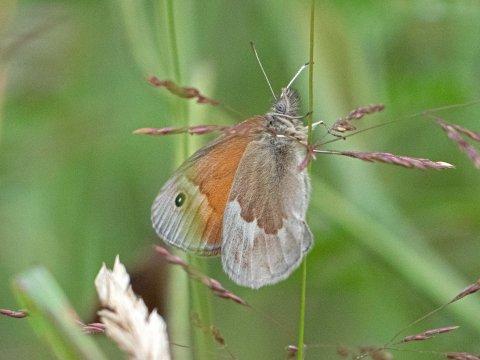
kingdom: Animalia
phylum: Arthropoda
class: Insecta
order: Lepidoptera
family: Nymphalidae
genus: Coenonympha
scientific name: Coenonympha tullia
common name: Large Heath
